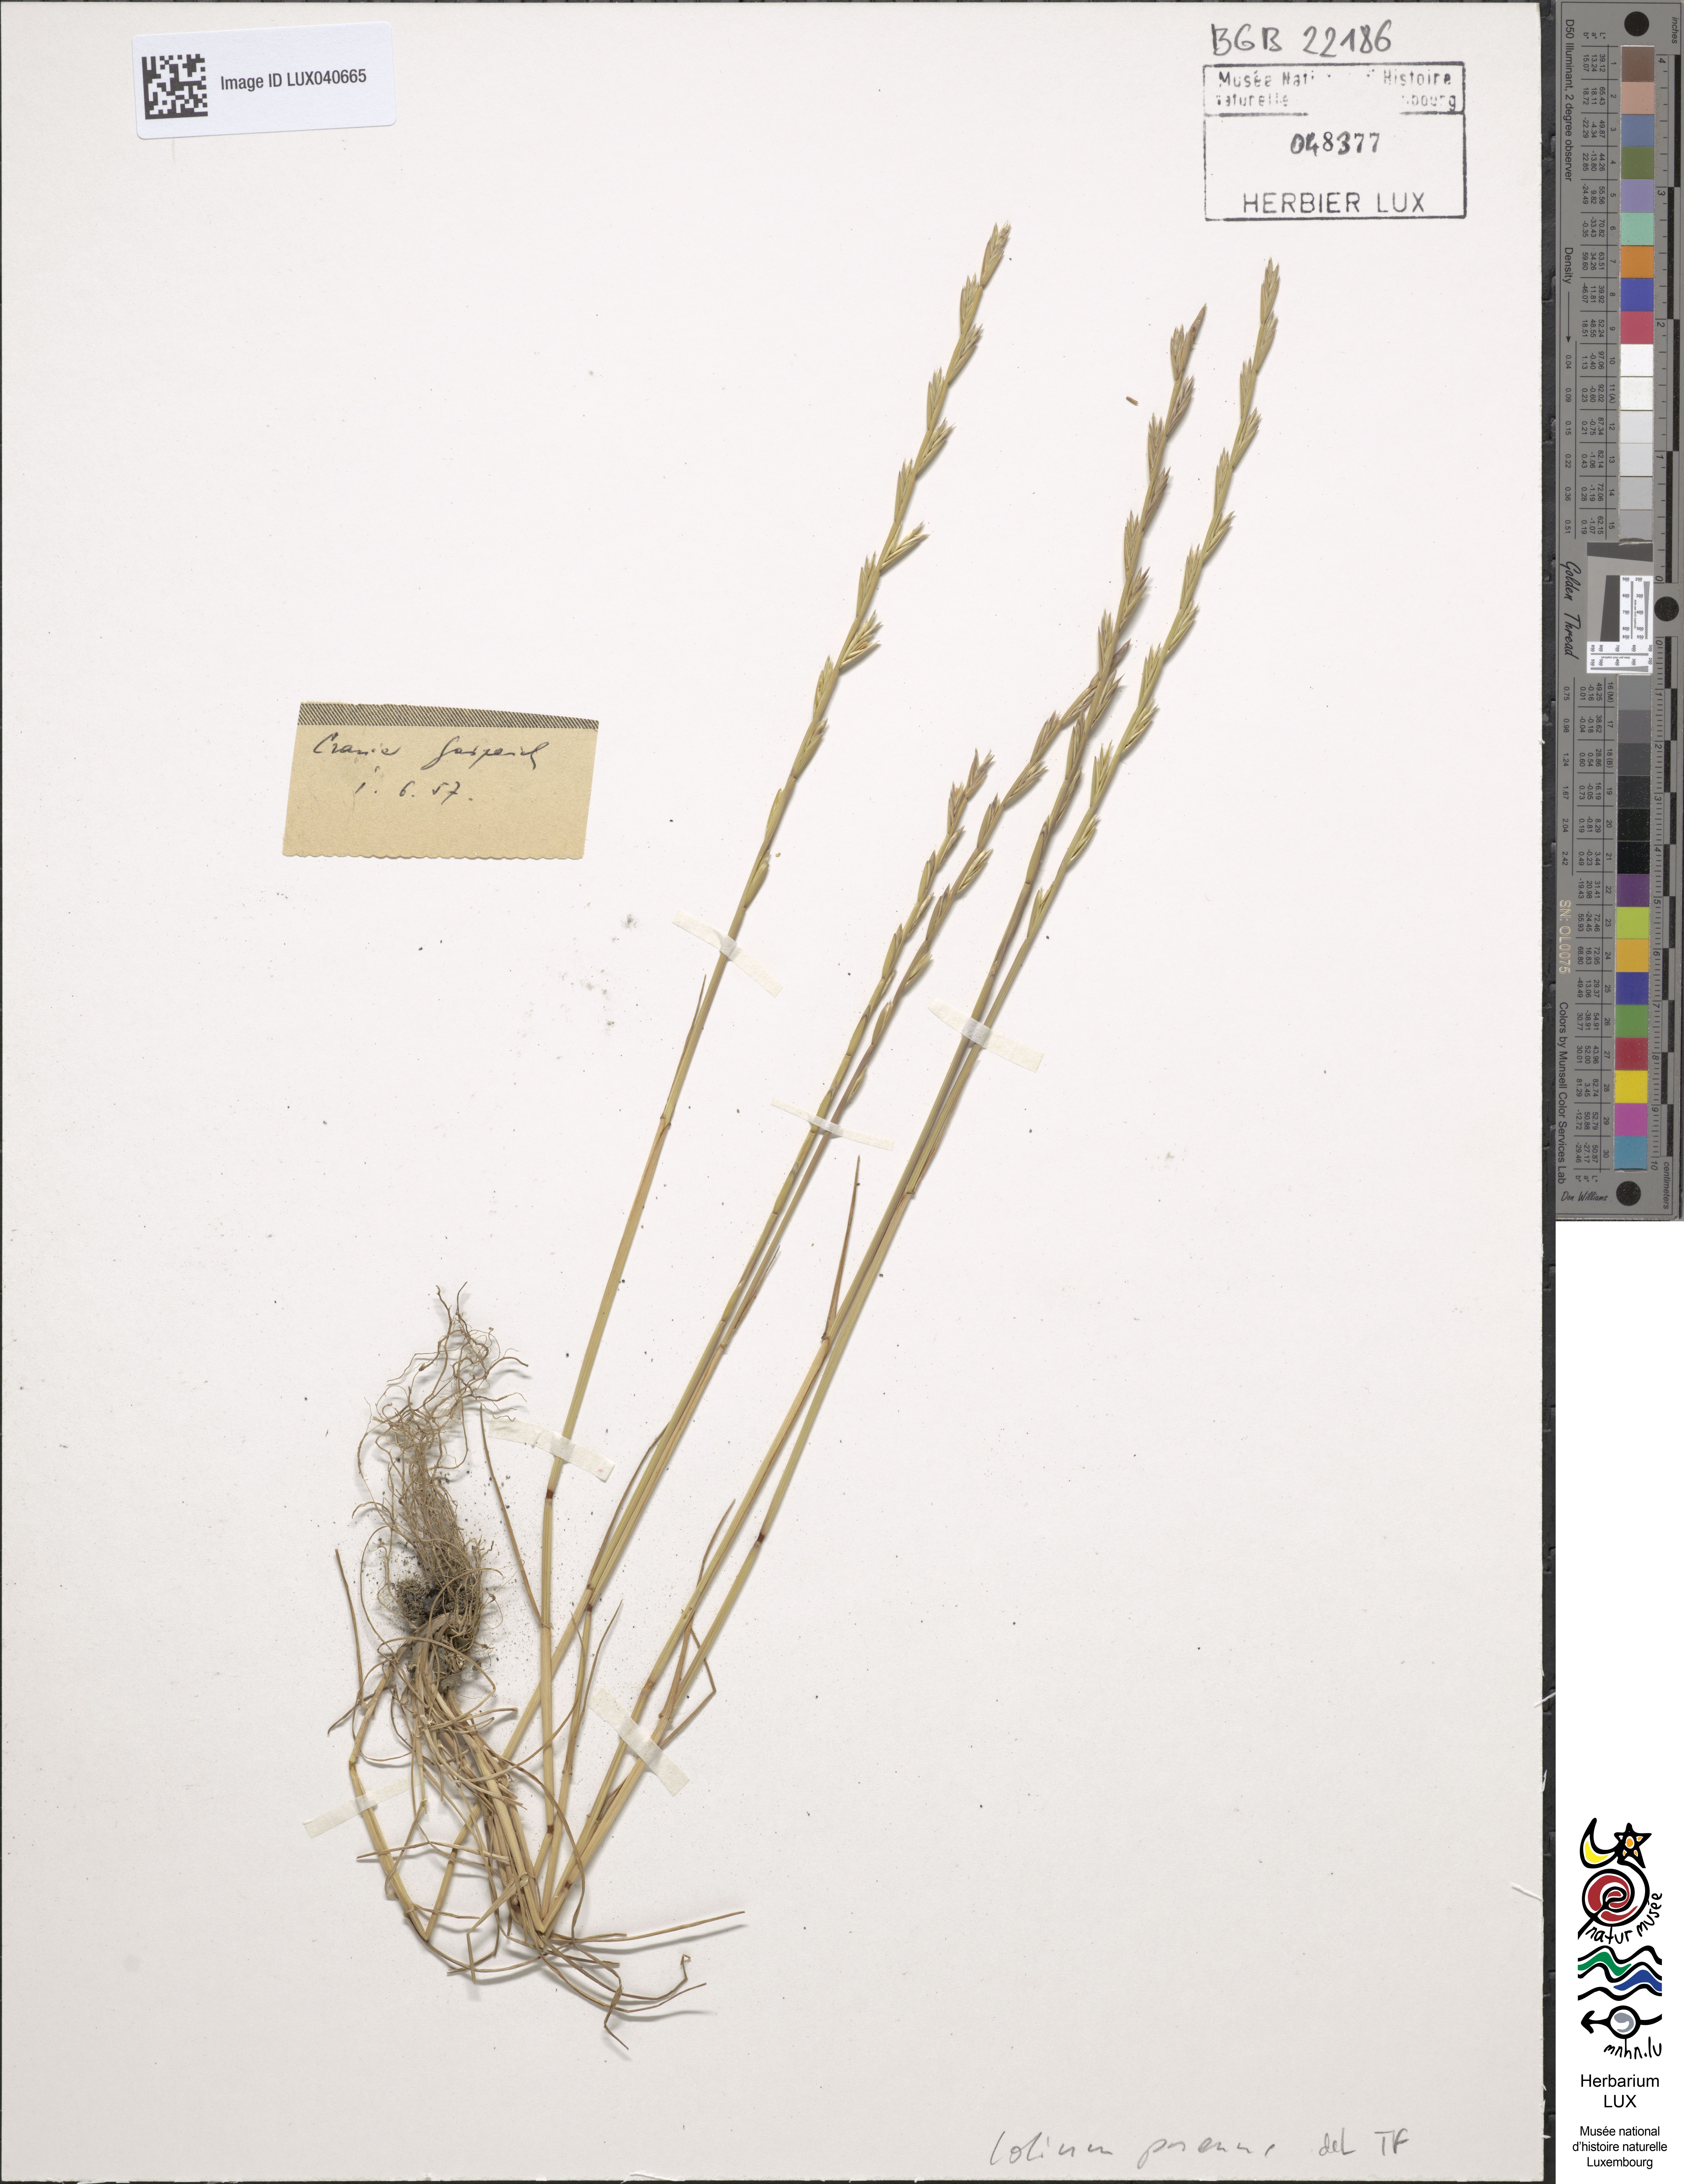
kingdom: Plantae
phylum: Tracheophyta
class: Liliopsida
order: Poales
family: Poaceae
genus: Lolium
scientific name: Lolium perenne
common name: Perennial ryegrass
